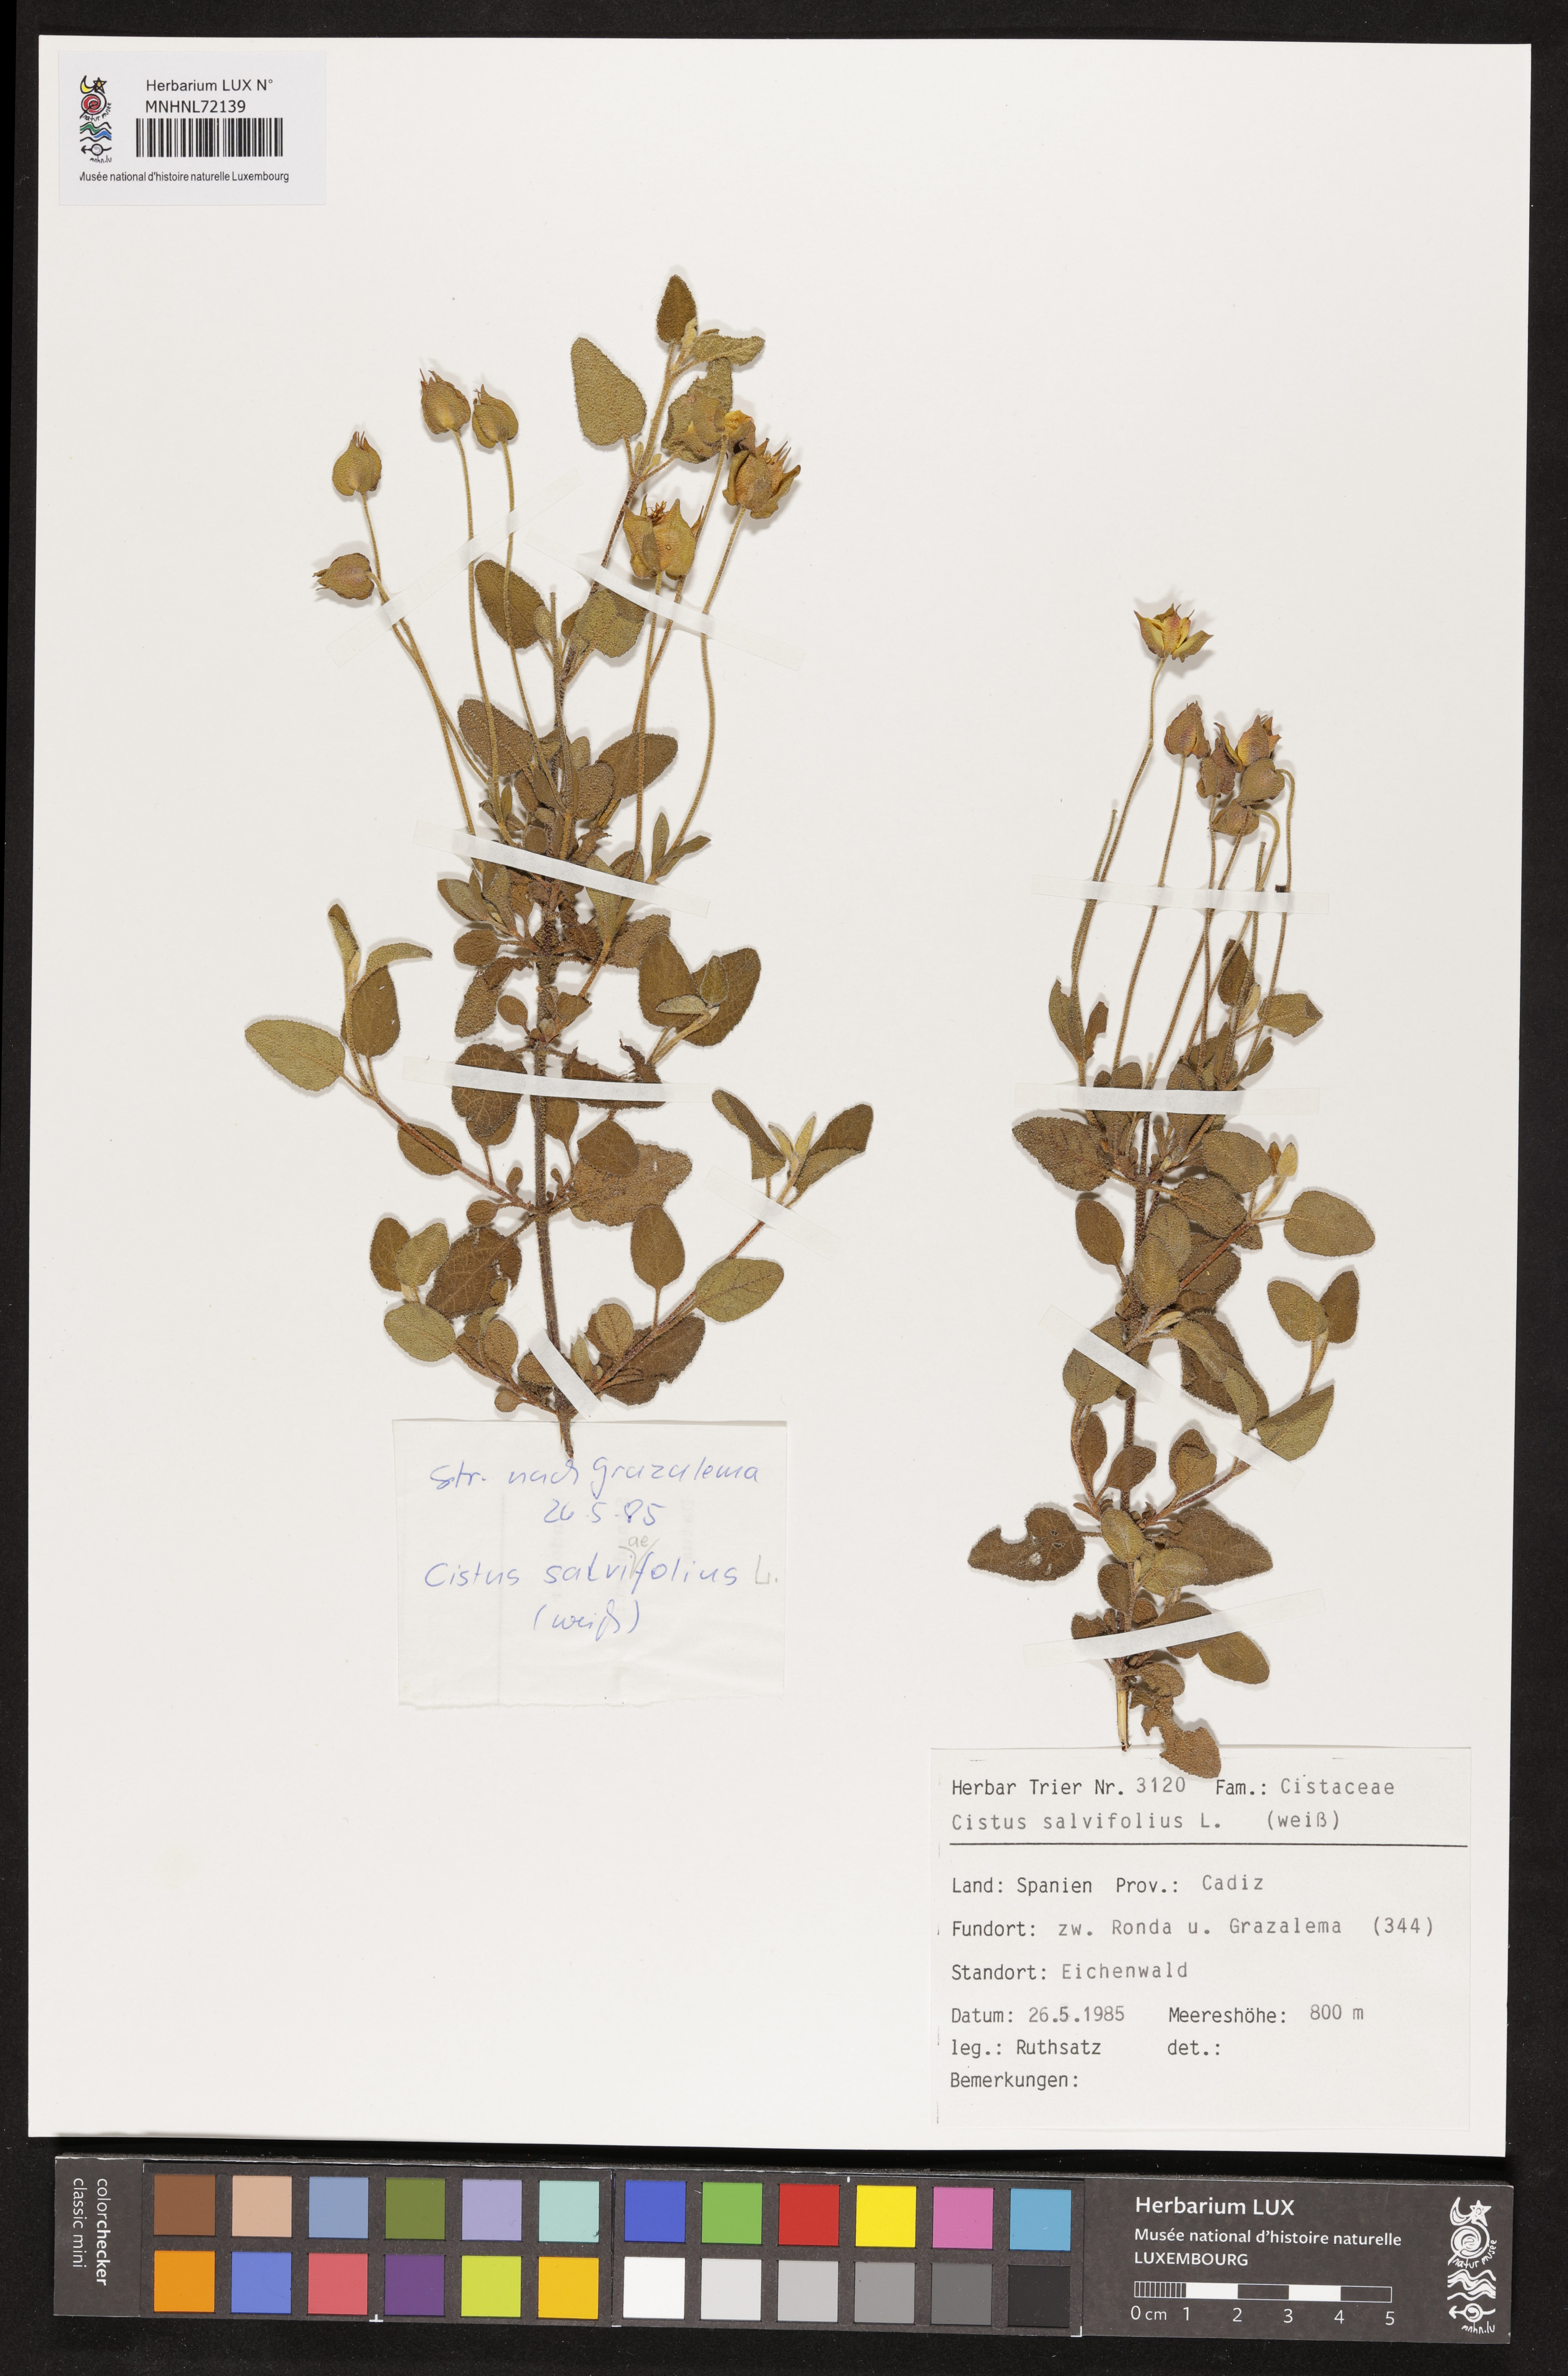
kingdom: Plantae
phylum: Tracheophyta
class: Magnoliopsida
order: Malvales
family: Cistaceae
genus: Cistus
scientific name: Cistus salviifolius
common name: Salvia cistus
